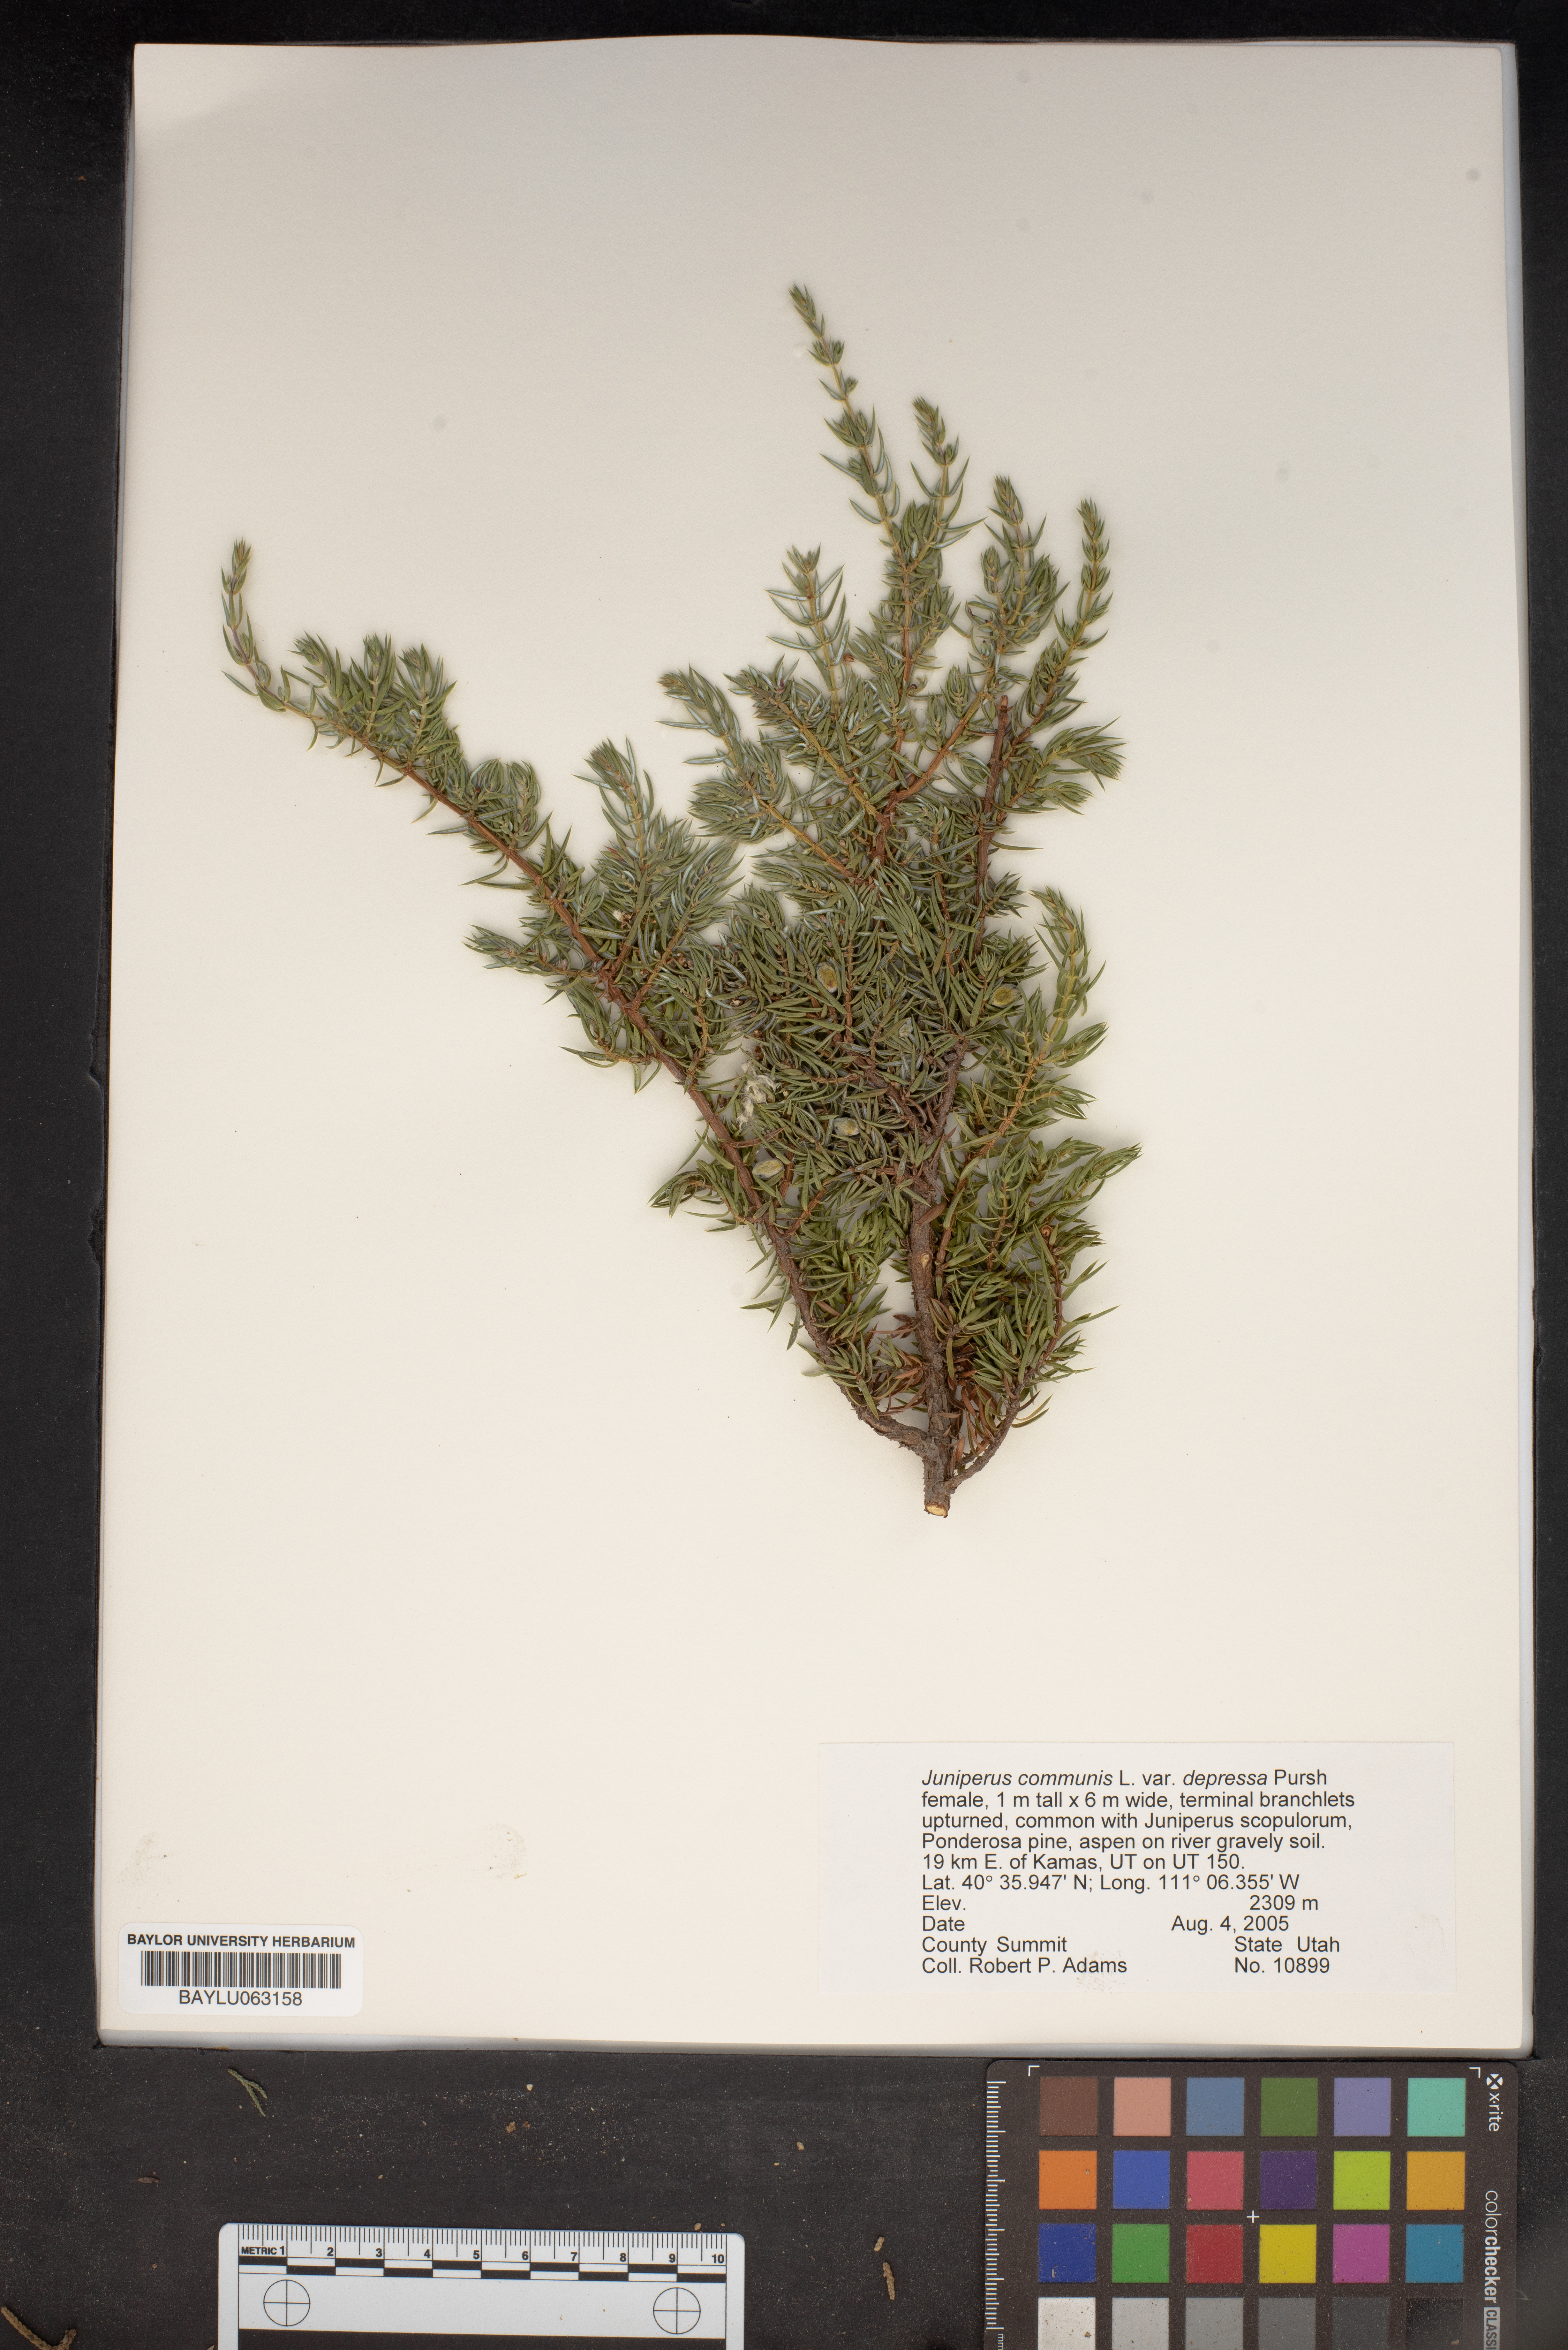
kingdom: Plantae
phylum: Tracheophyta
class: Pinopsida
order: Pinales
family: Cupressaceae
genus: Juniperus
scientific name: Juniperus communis
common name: Common juniper
